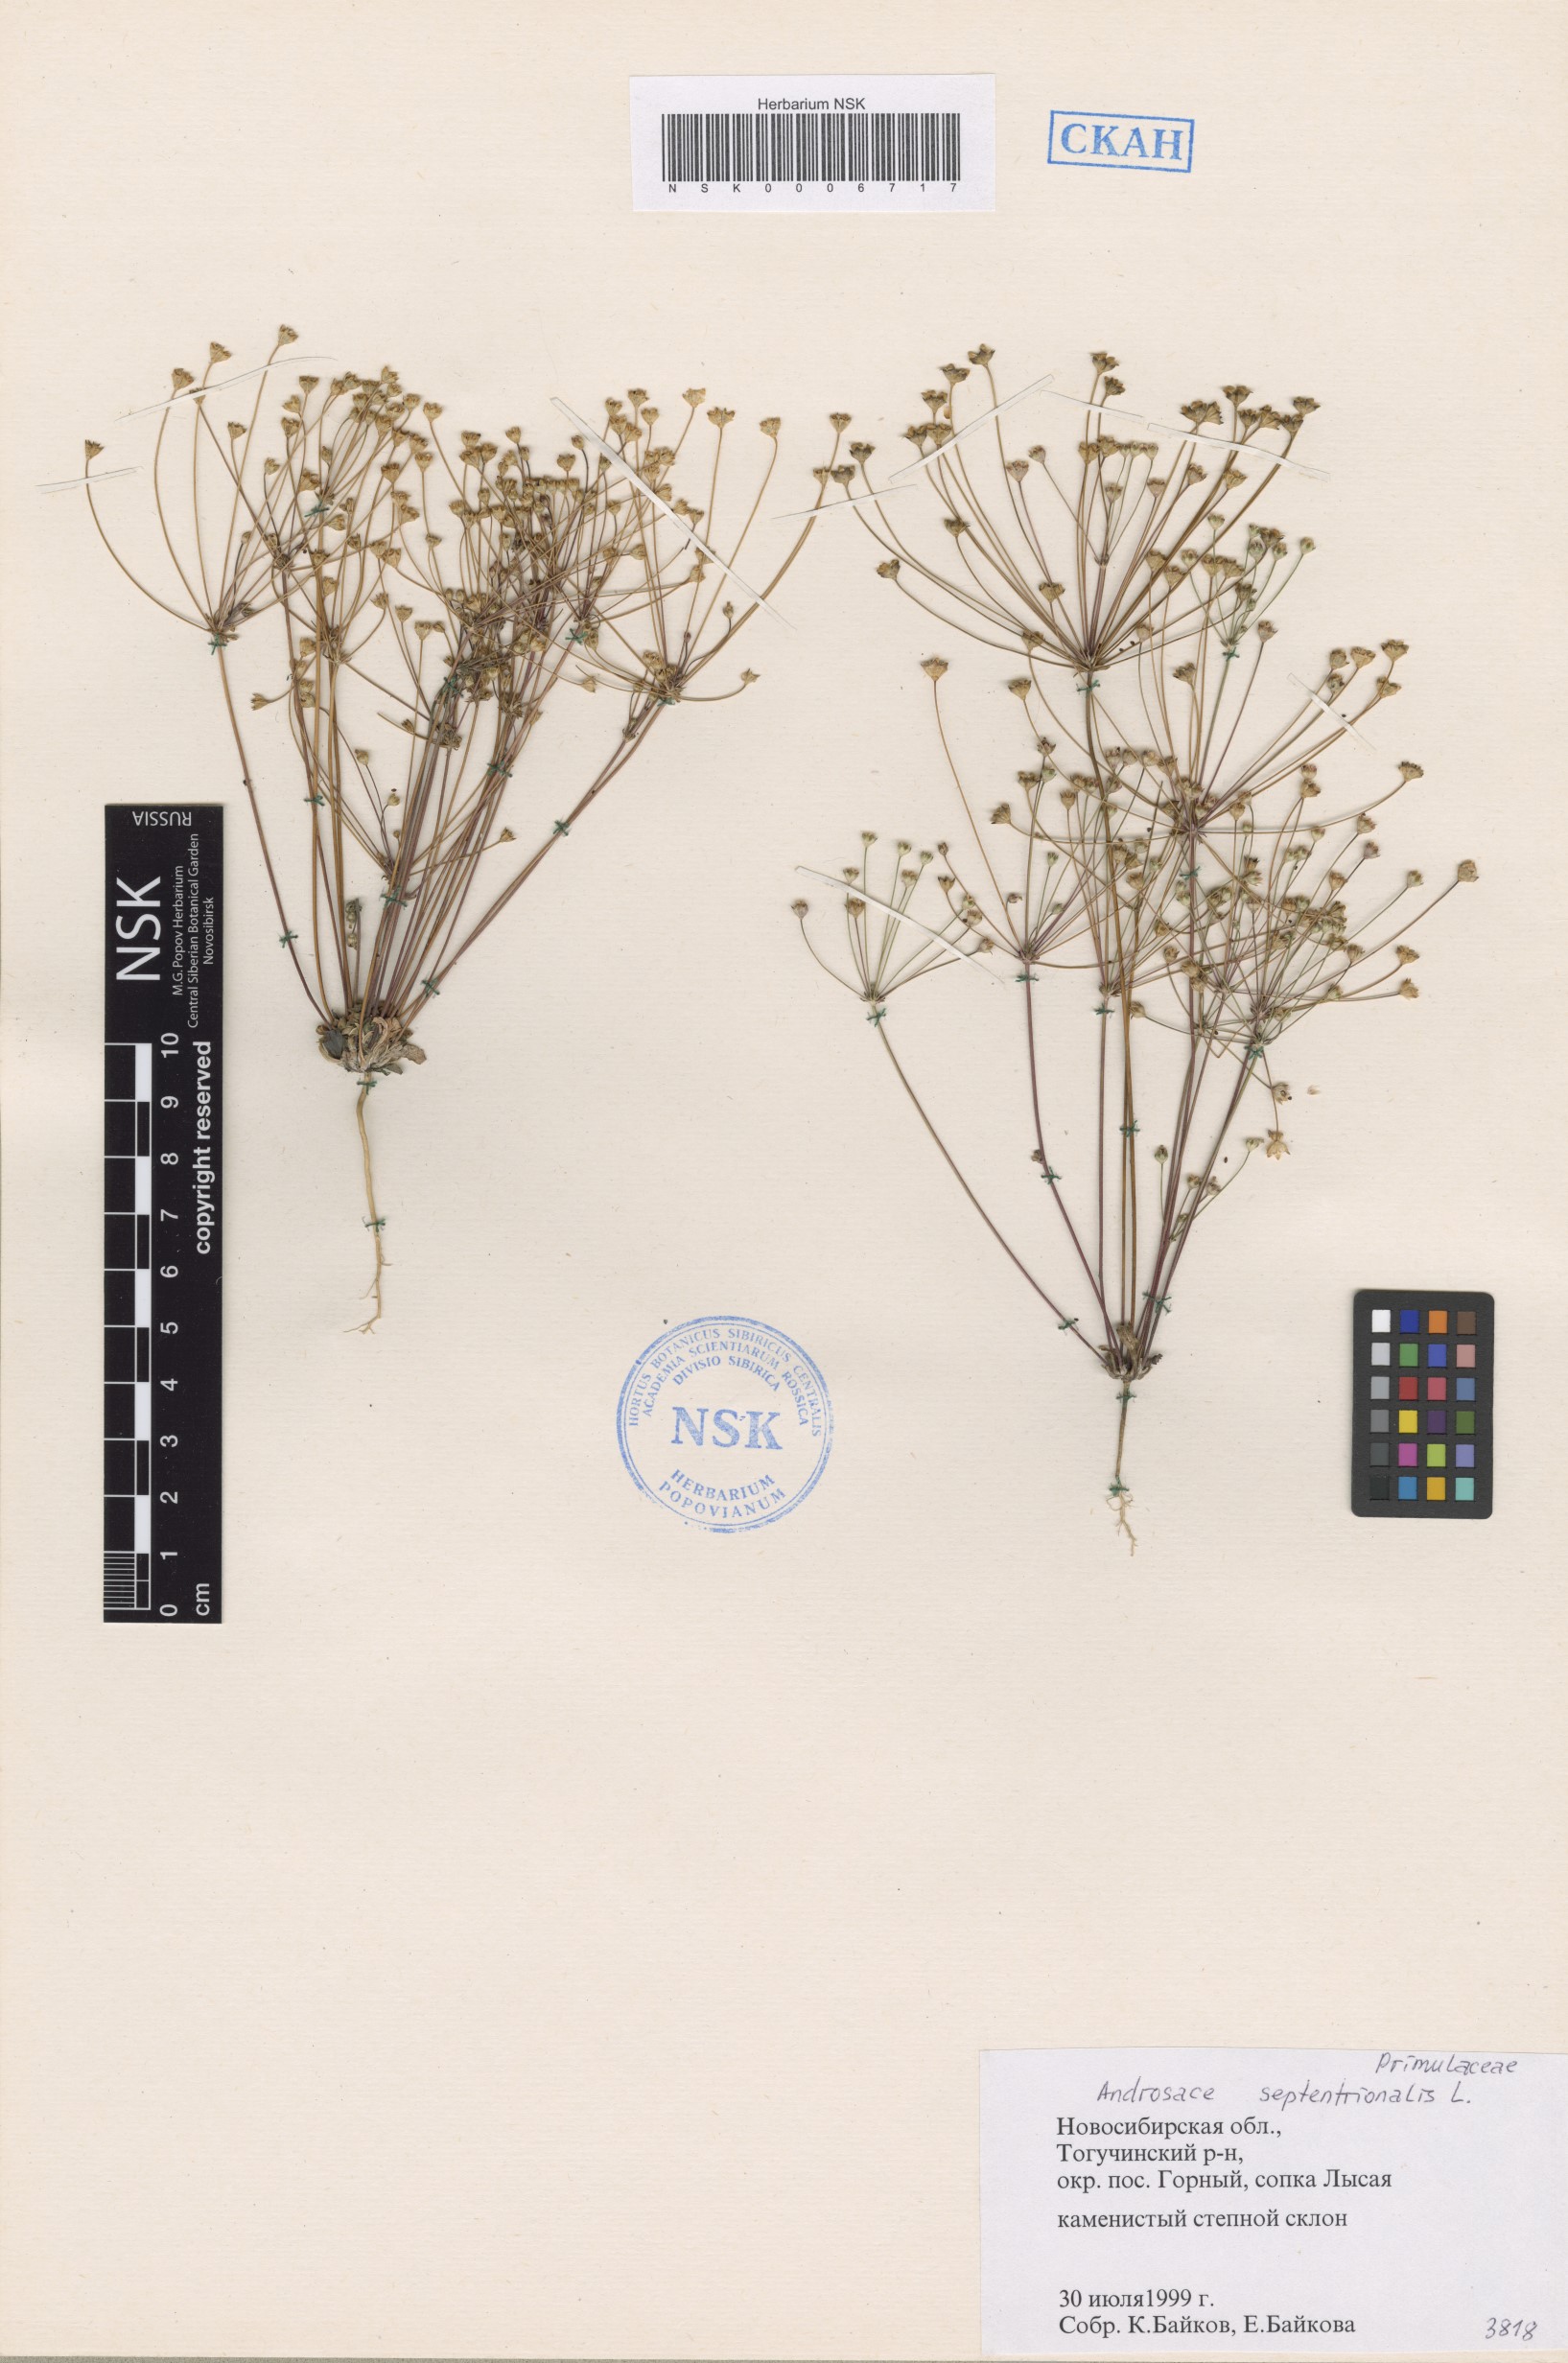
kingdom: Plantae
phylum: Tracheophyta
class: Magnoliopsida
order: Ericales
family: Primulaceae
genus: Androsace
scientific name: Androsace septentrionalis
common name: Hairy northern fairy-candelabra
